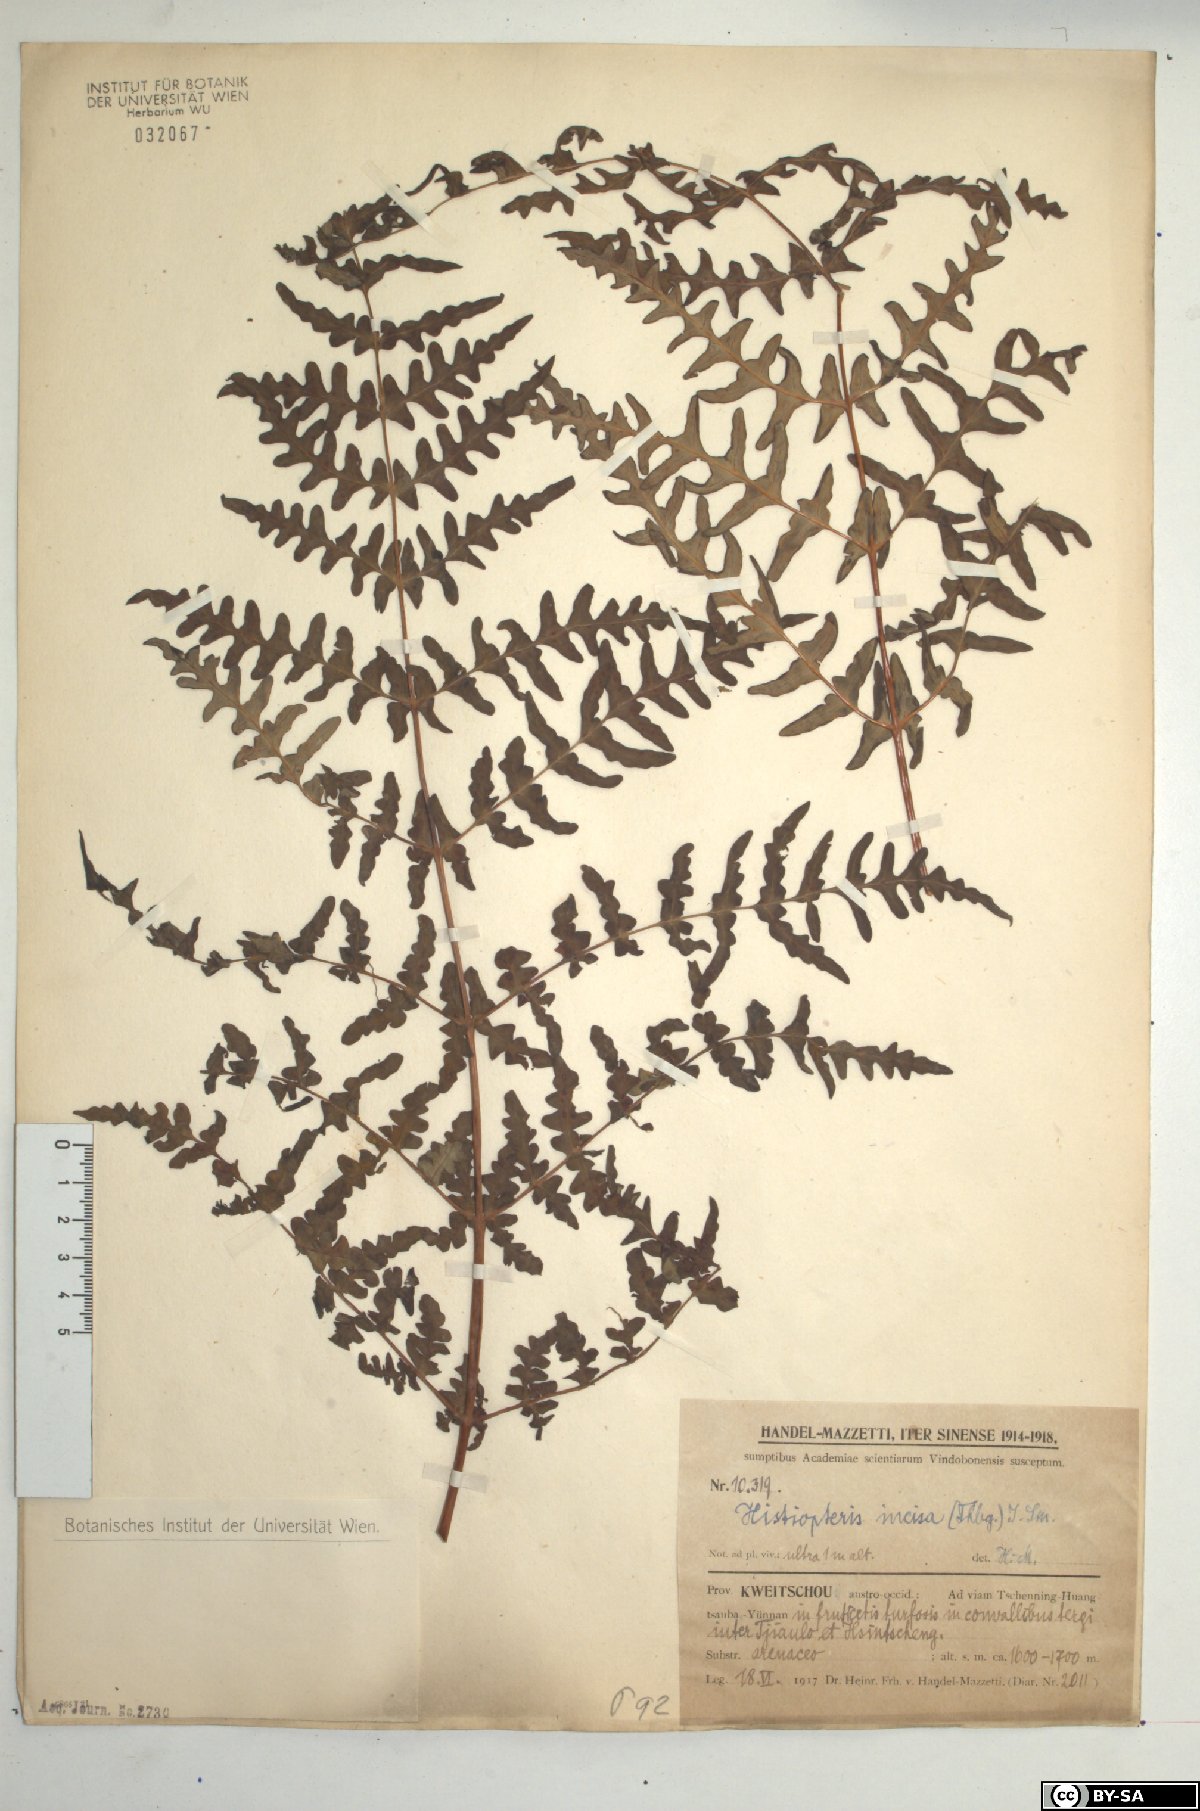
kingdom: Plantae
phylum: Tracheophyta
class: Polypodiopsida
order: Polypodiales
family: Dennstaedtiaceae
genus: Histiopteris
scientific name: Histiopteris incisa
